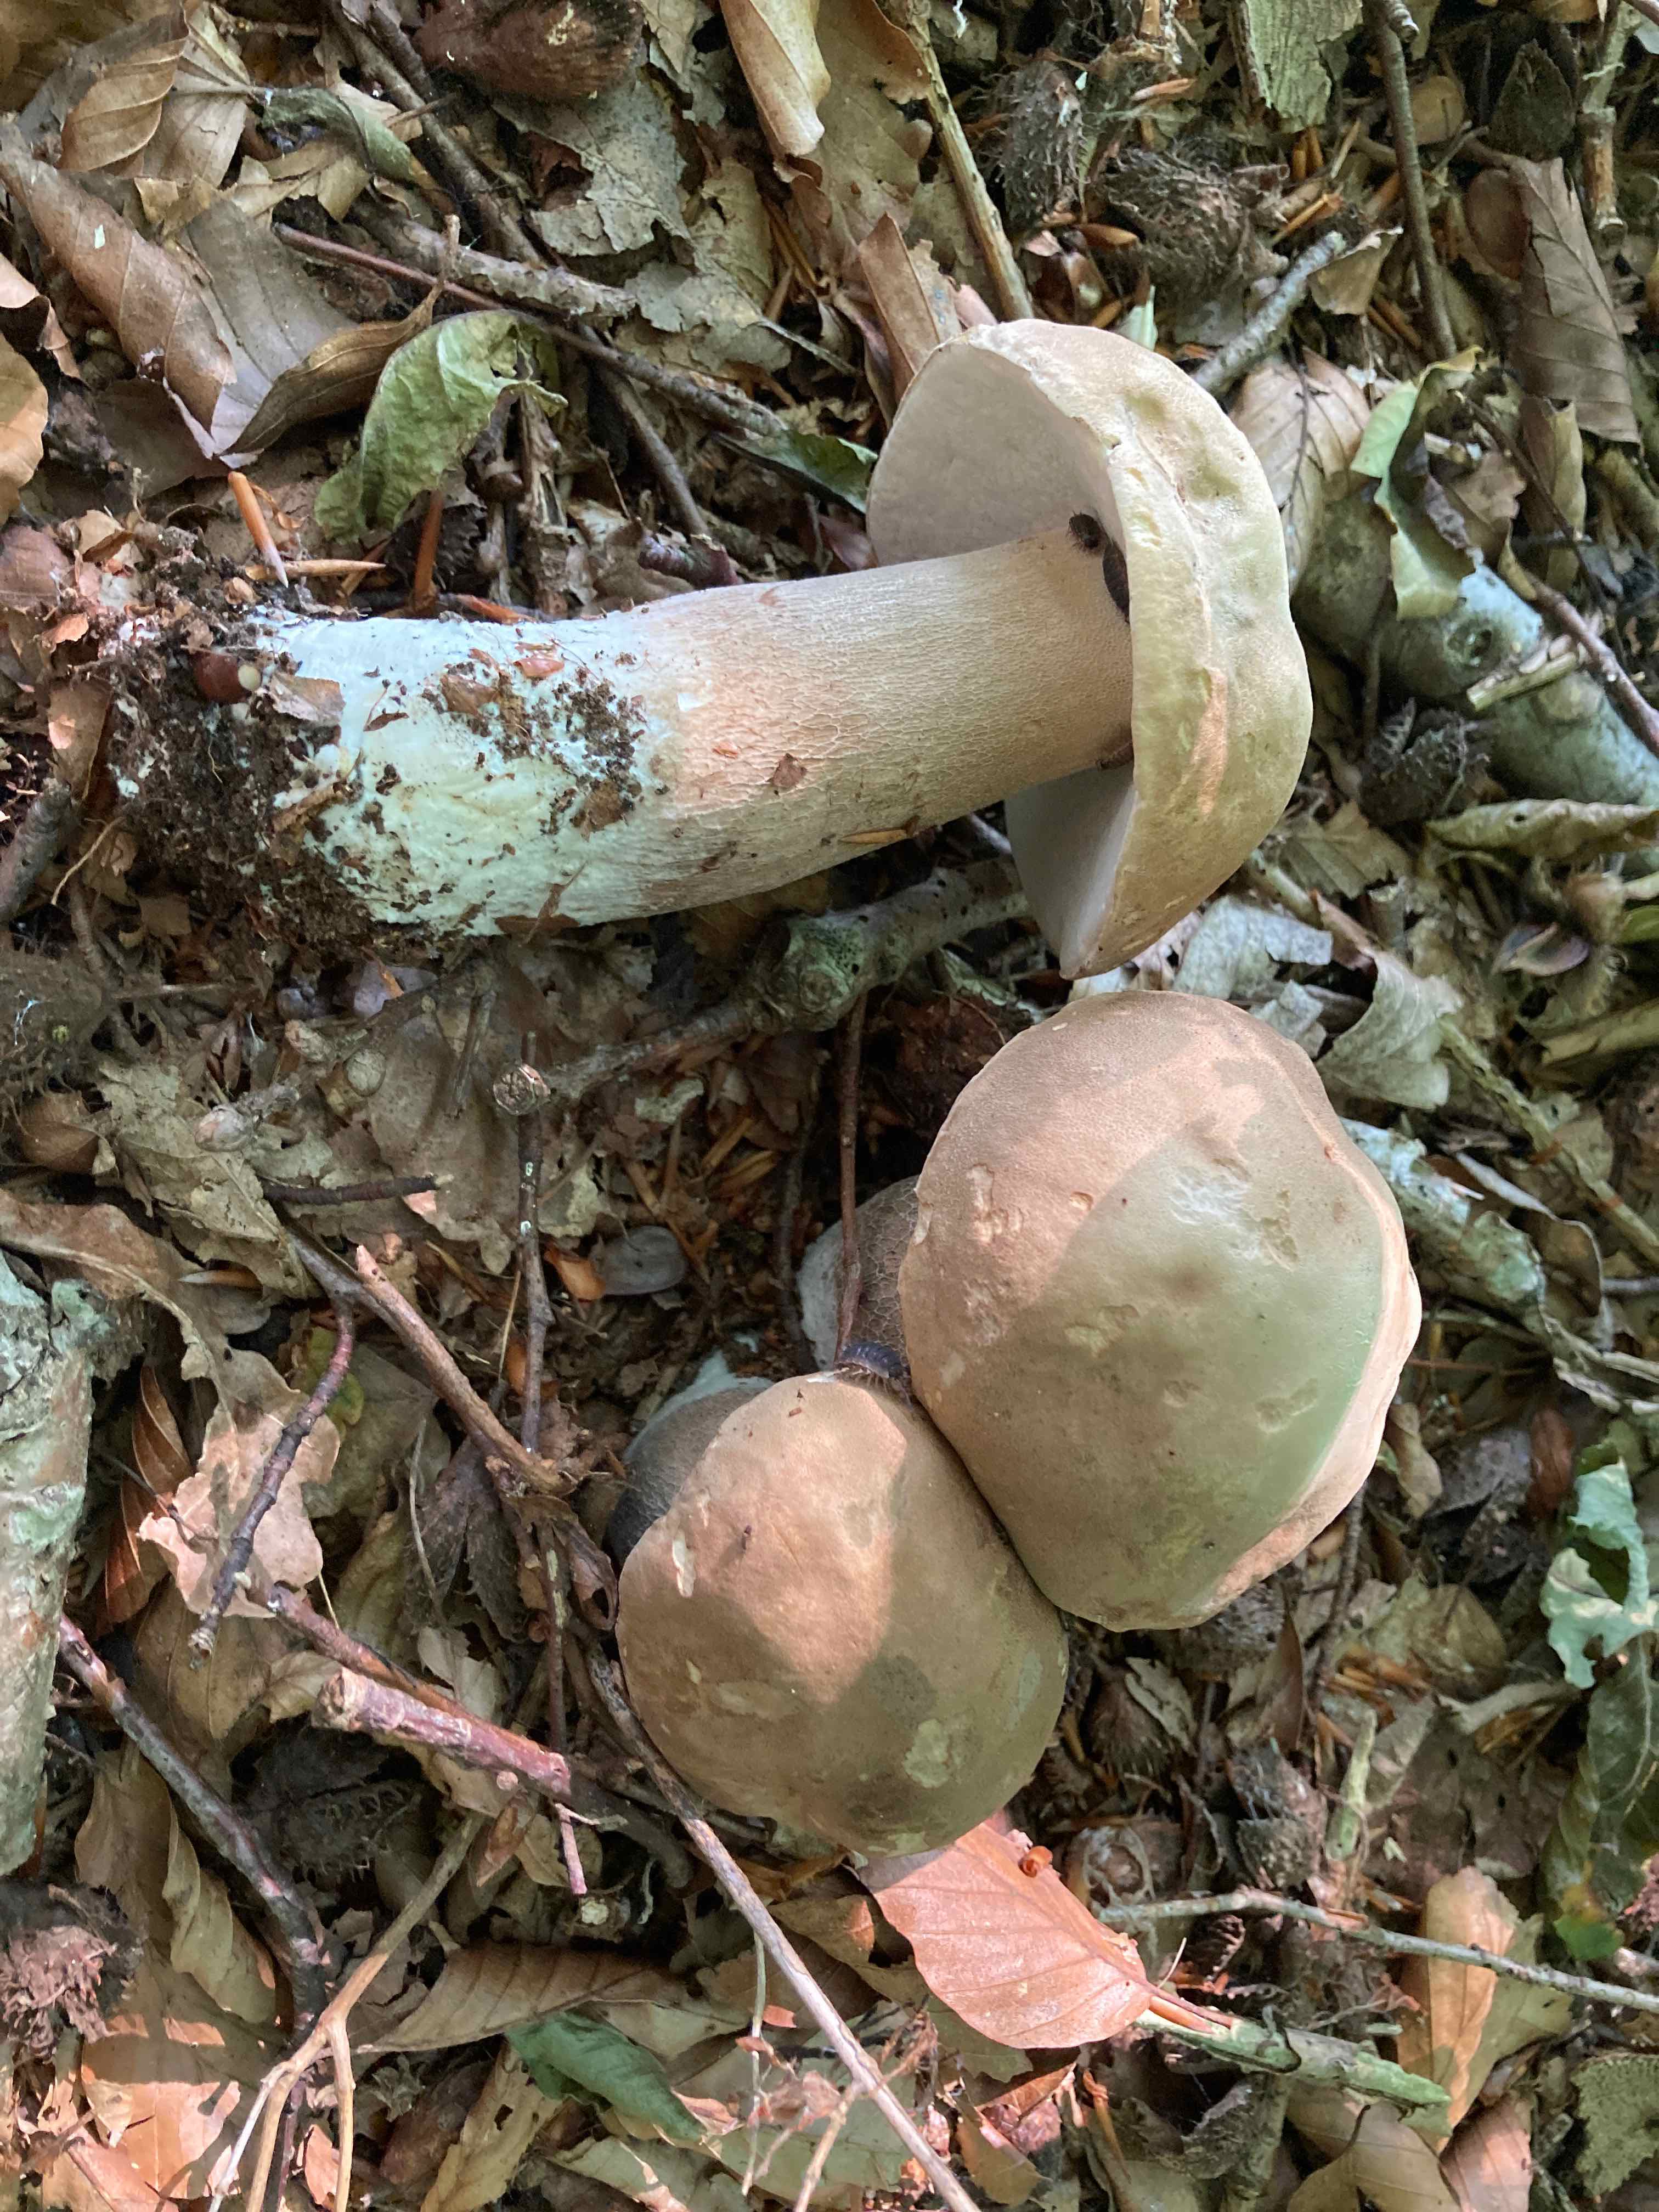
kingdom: Fungi
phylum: Basidiomycota
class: Agaricomycetes
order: Boletales
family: Boletaceae
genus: Boletus
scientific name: Boletus reticulatus
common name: sommer-rørhat
